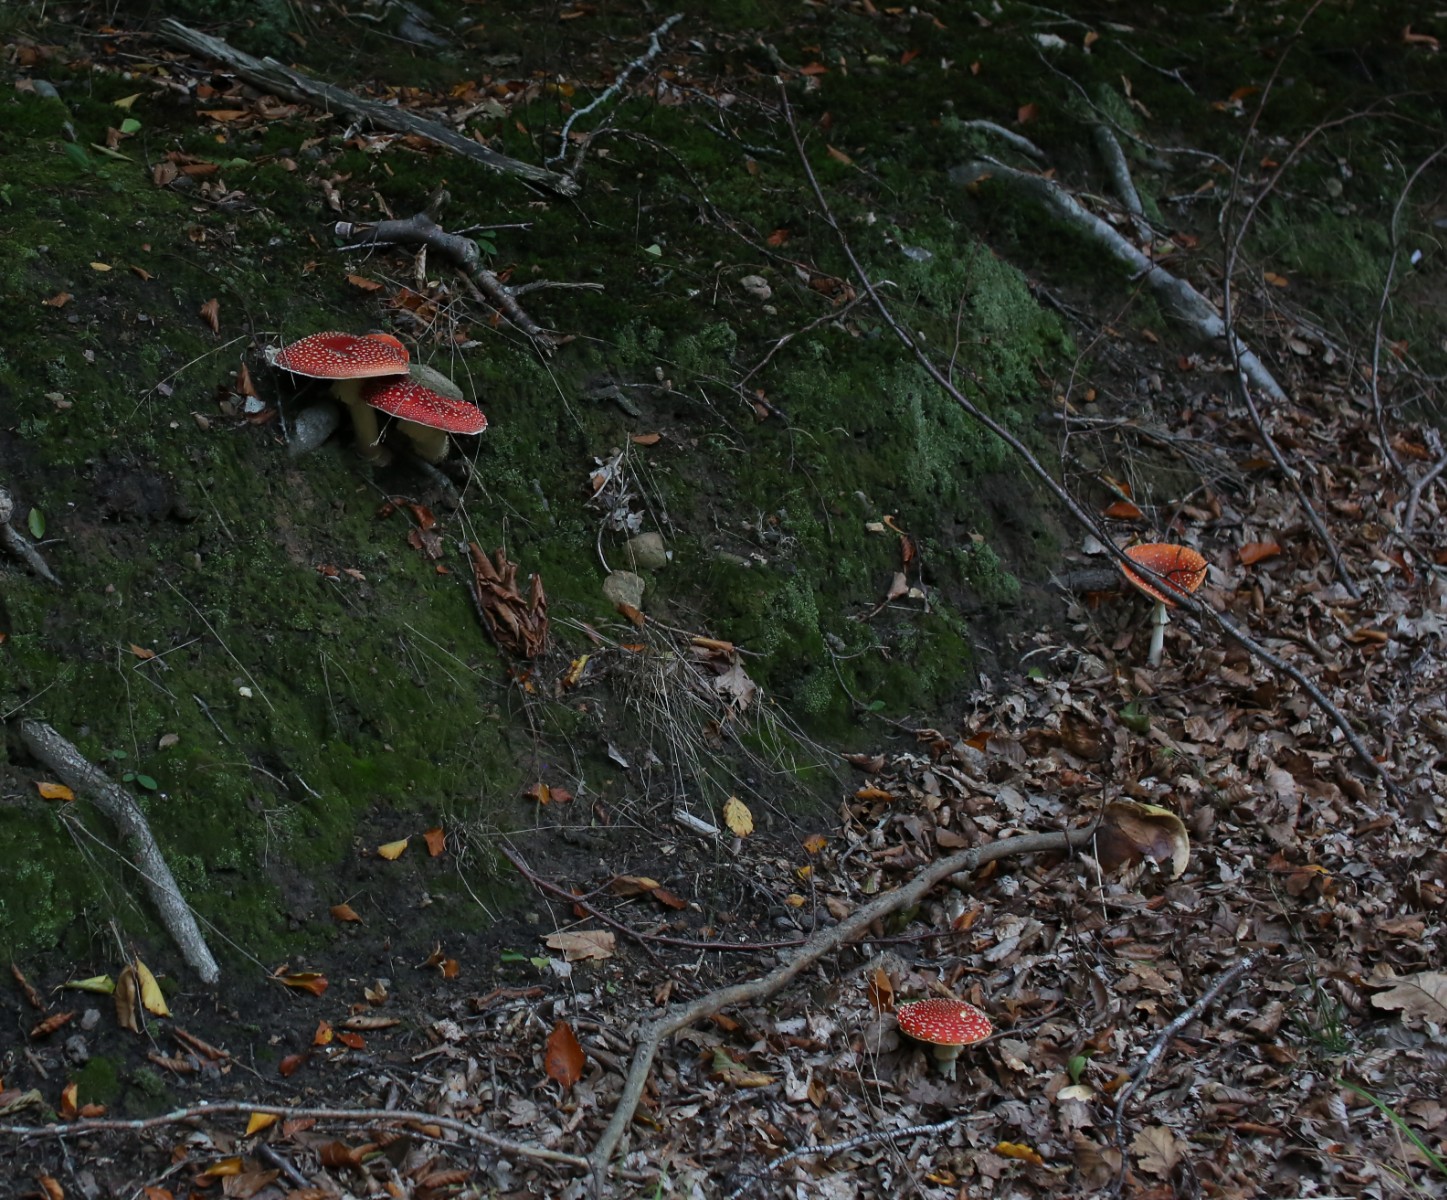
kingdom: Fungi
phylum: Basidiomycota
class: Agaricomycetes
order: Agaricales
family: Amanitaceae
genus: Amanita
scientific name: Amanita muscaria
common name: rød fluesvamp
